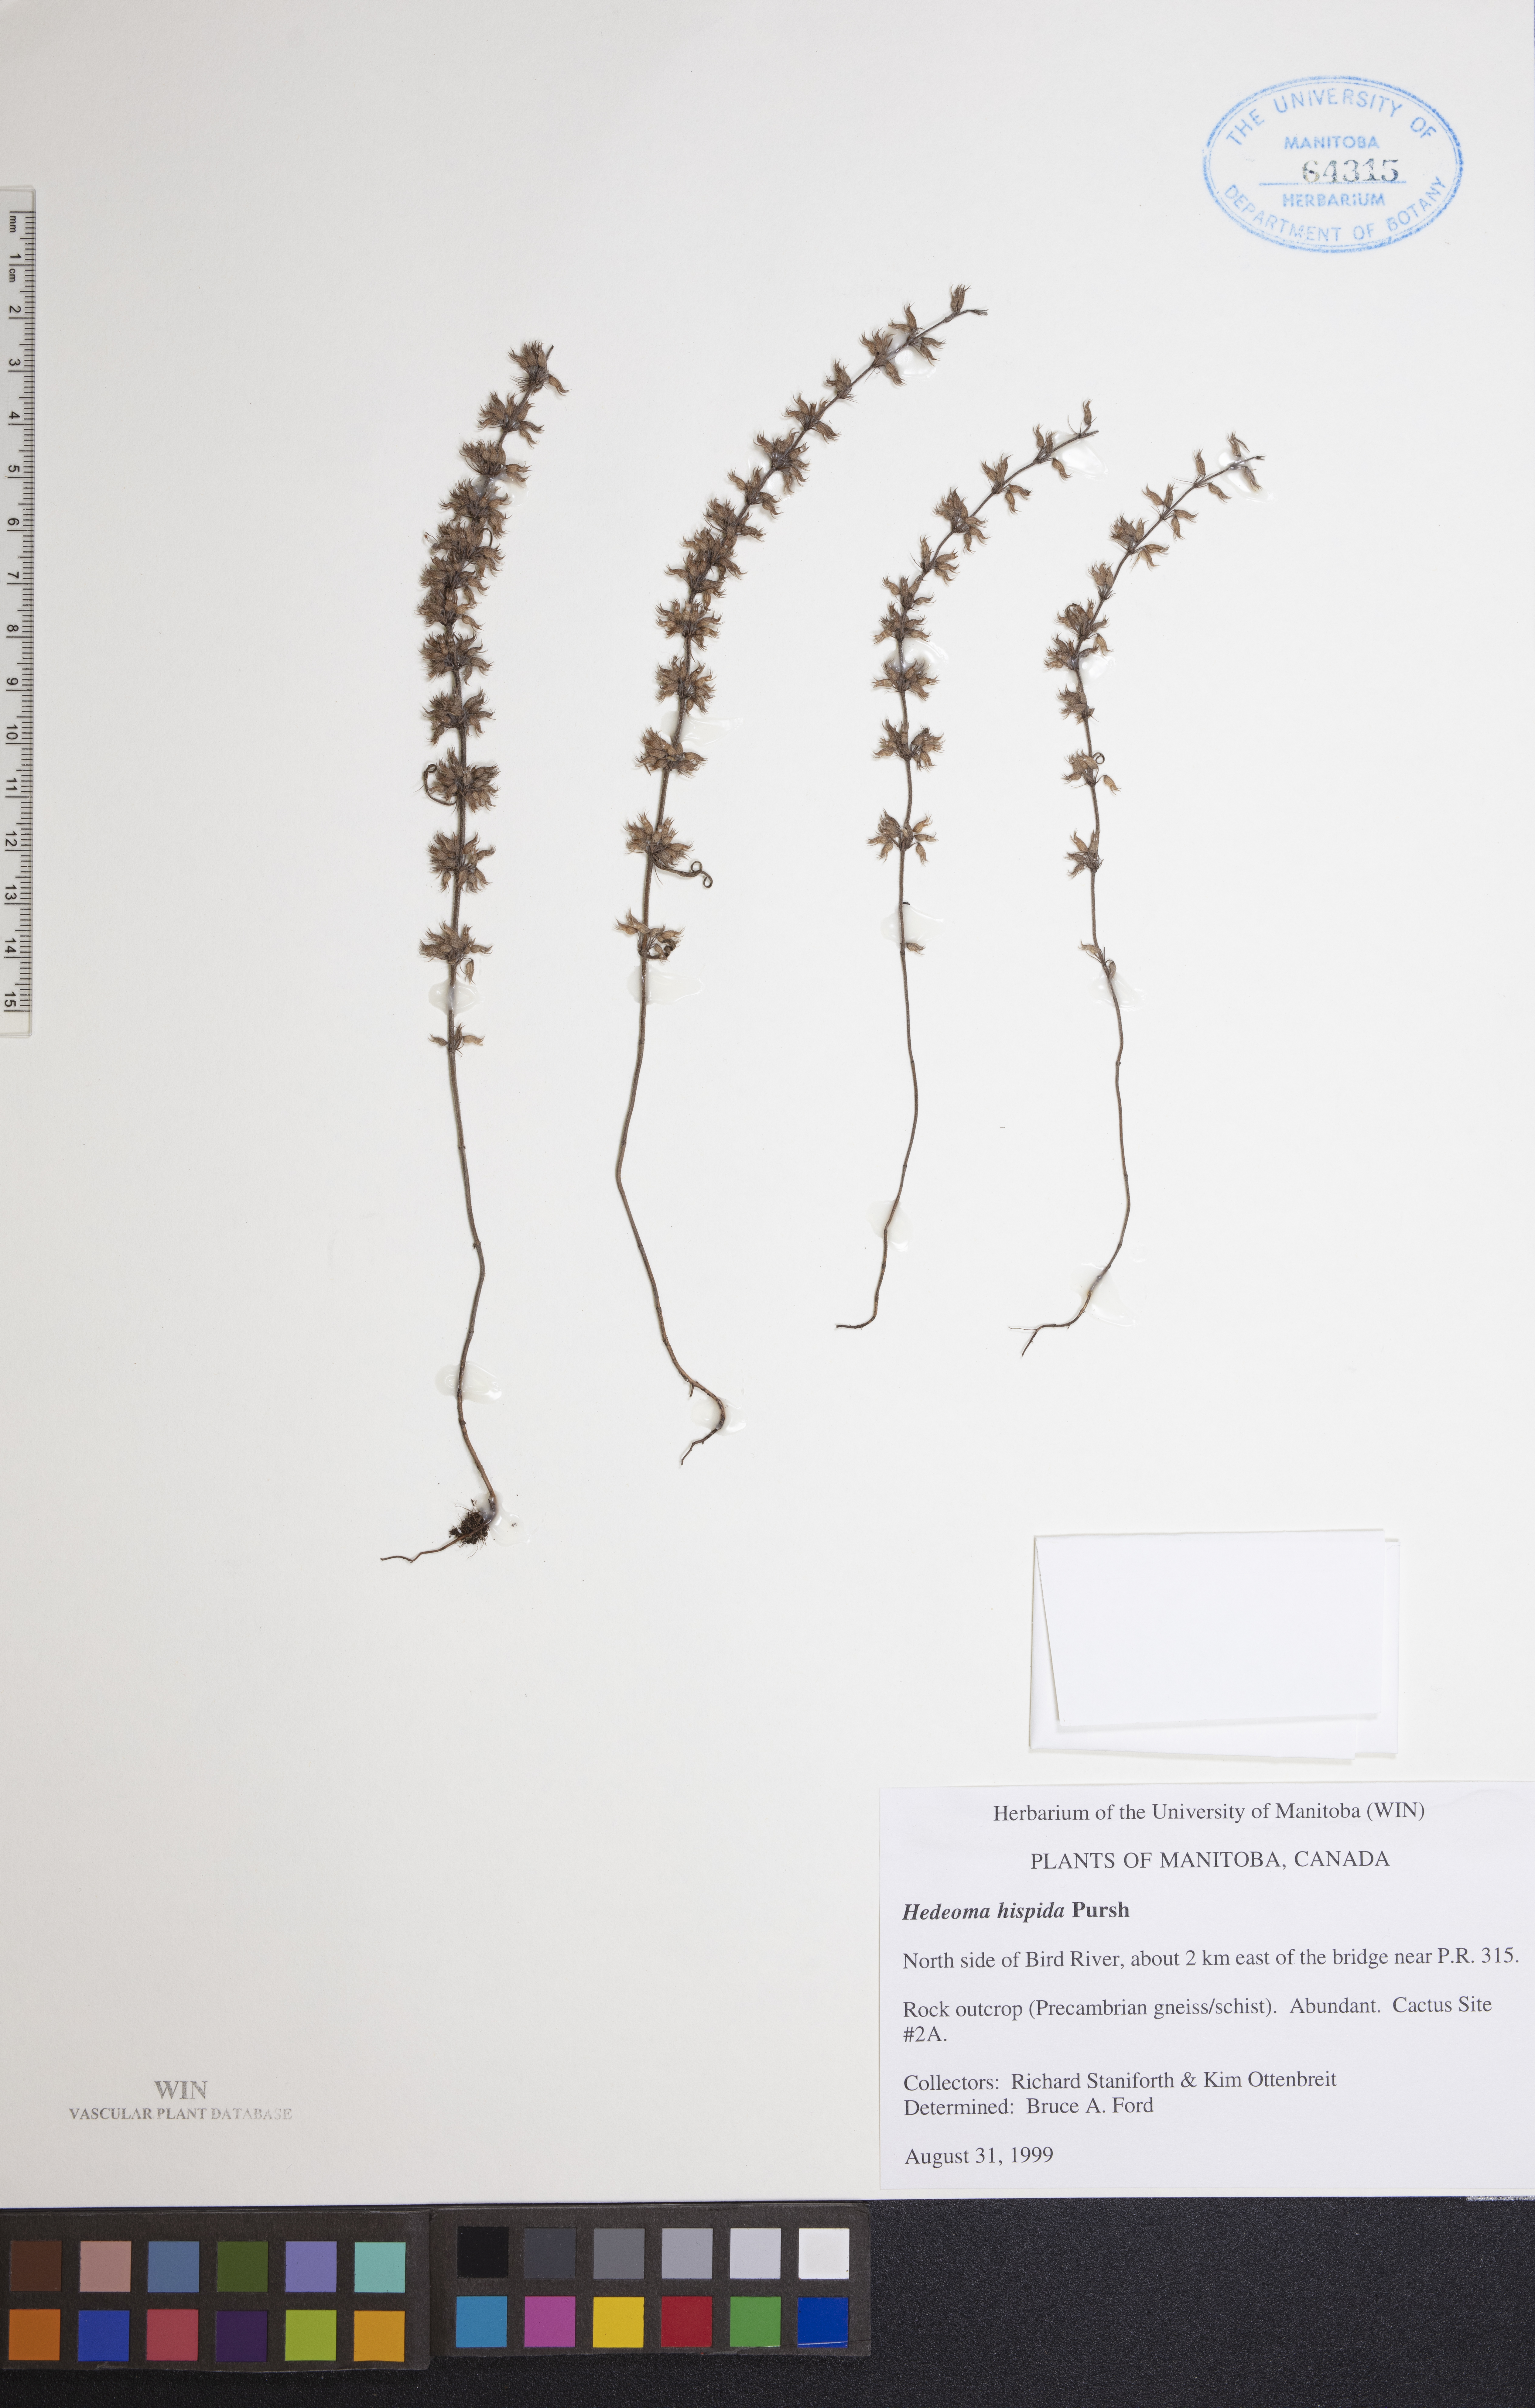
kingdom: Plantae
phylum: Tracheophyta
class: Magnoliopsida
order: Lamiales
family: Lamiaceae
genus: Hedeoma
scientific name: Hedeoma hispida
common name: Mock pennyroyal
